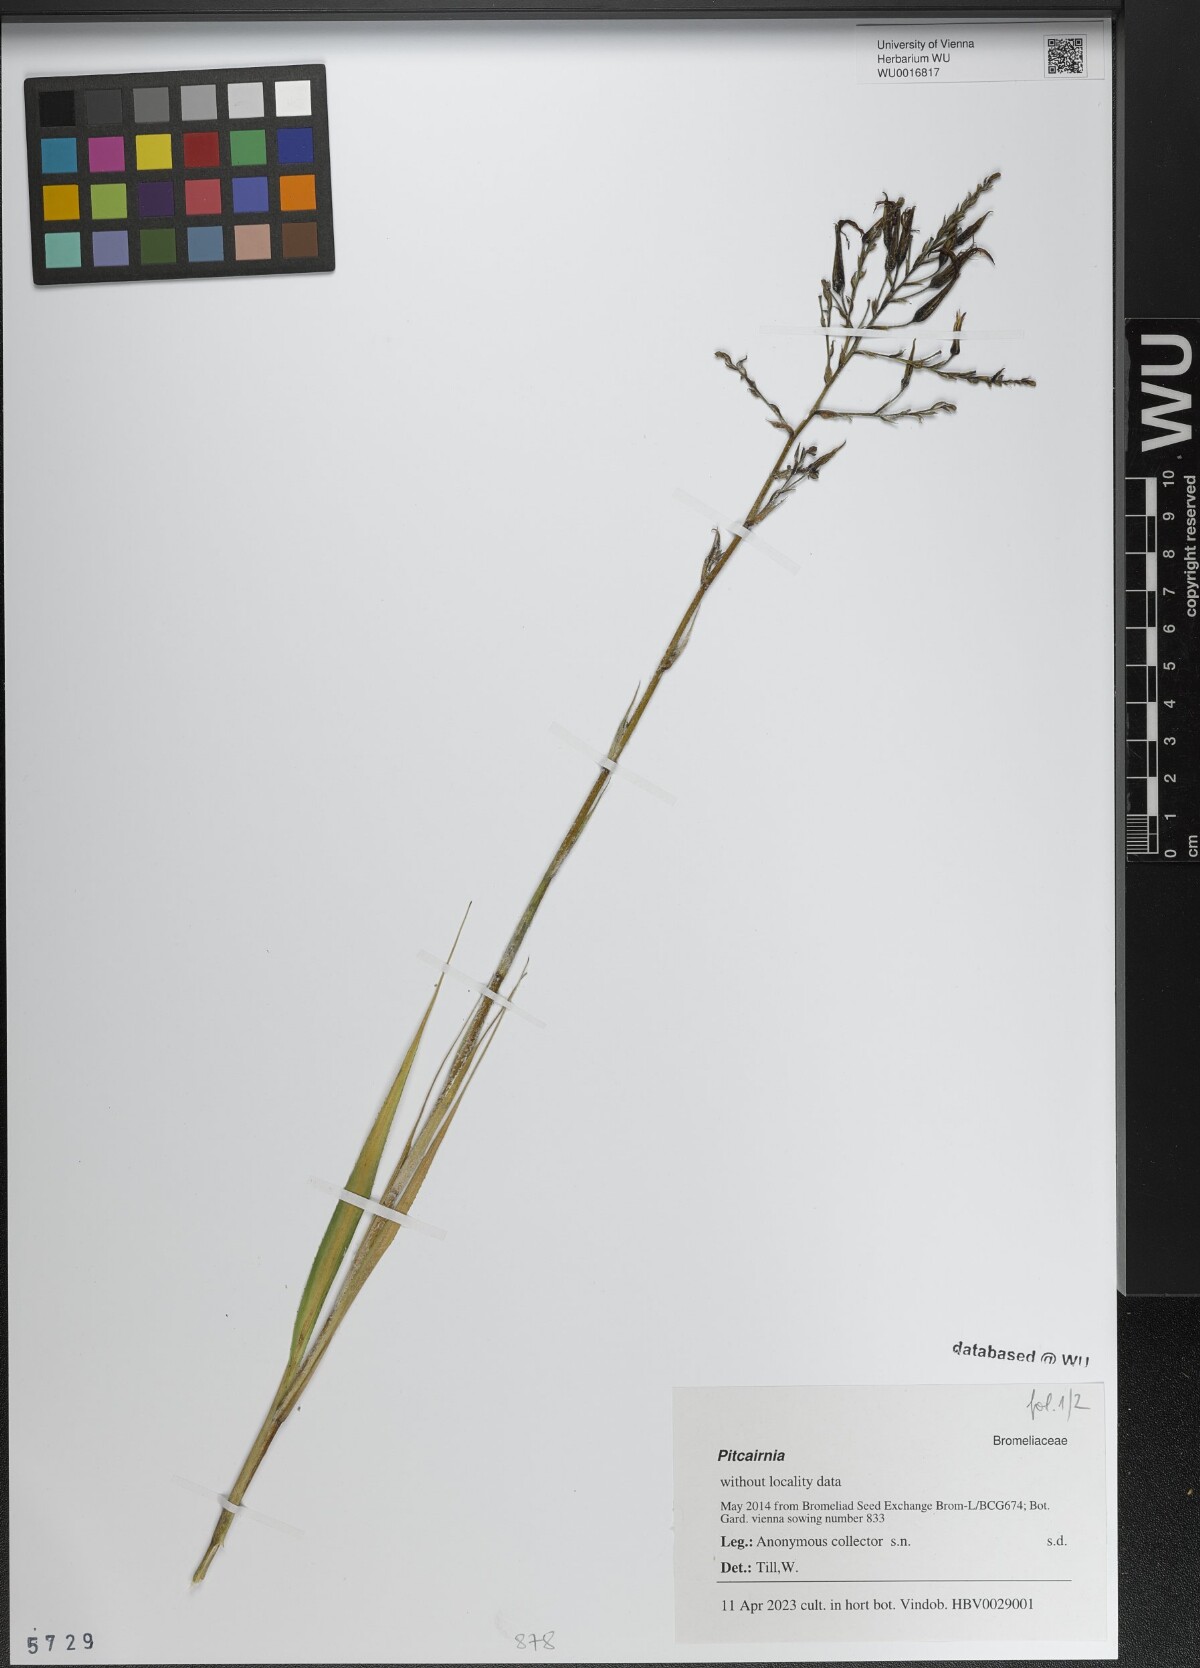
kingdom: Plantae
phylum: Tracheophyta
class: Liliopsida
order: Poales
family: Bromeliaceae
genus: Pitcairnia
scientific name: Pitcairnia
